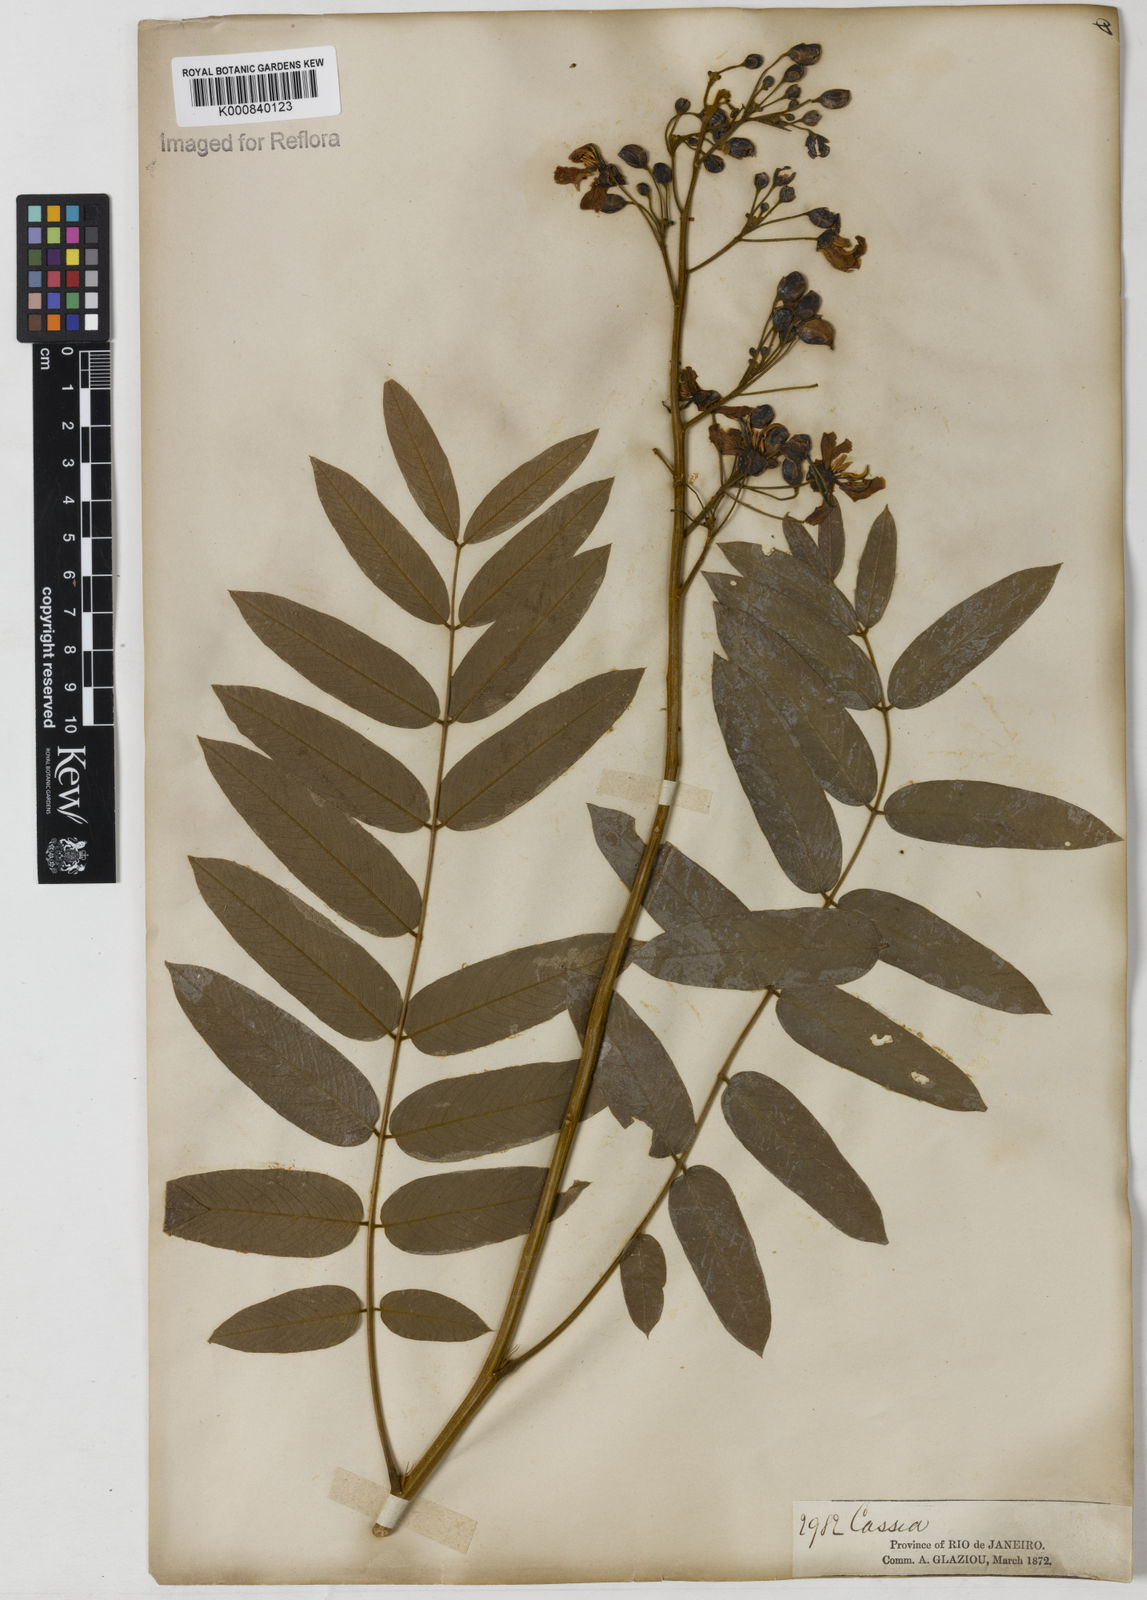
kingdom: Plantae
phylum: Tracheophyta
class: Magnoliopsida
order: Fabales
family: Fabaceae
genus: Senna
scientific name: Senna silvestris
